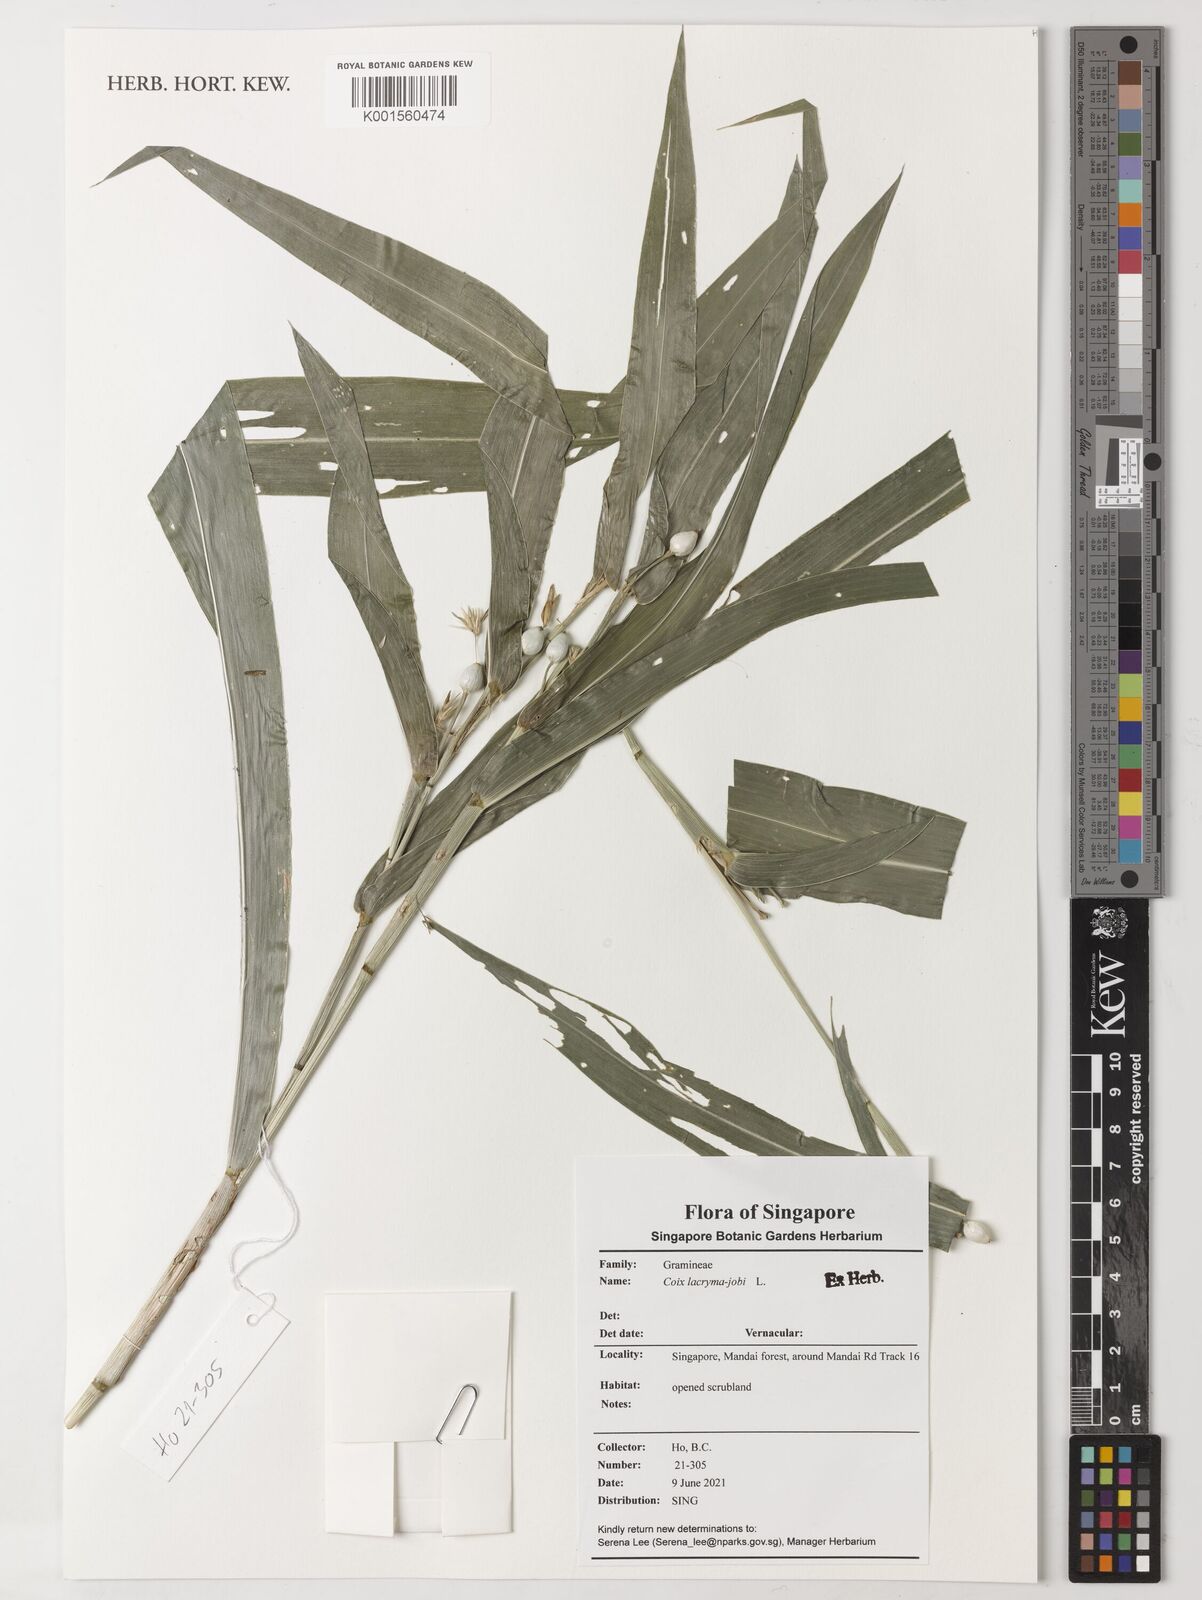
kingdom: Plantae
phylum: Tracheophyta
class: Liliopsida
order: Poales
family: Poaceae
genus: Coix
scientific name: Coix lacryma-jobi
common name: Job's tears
